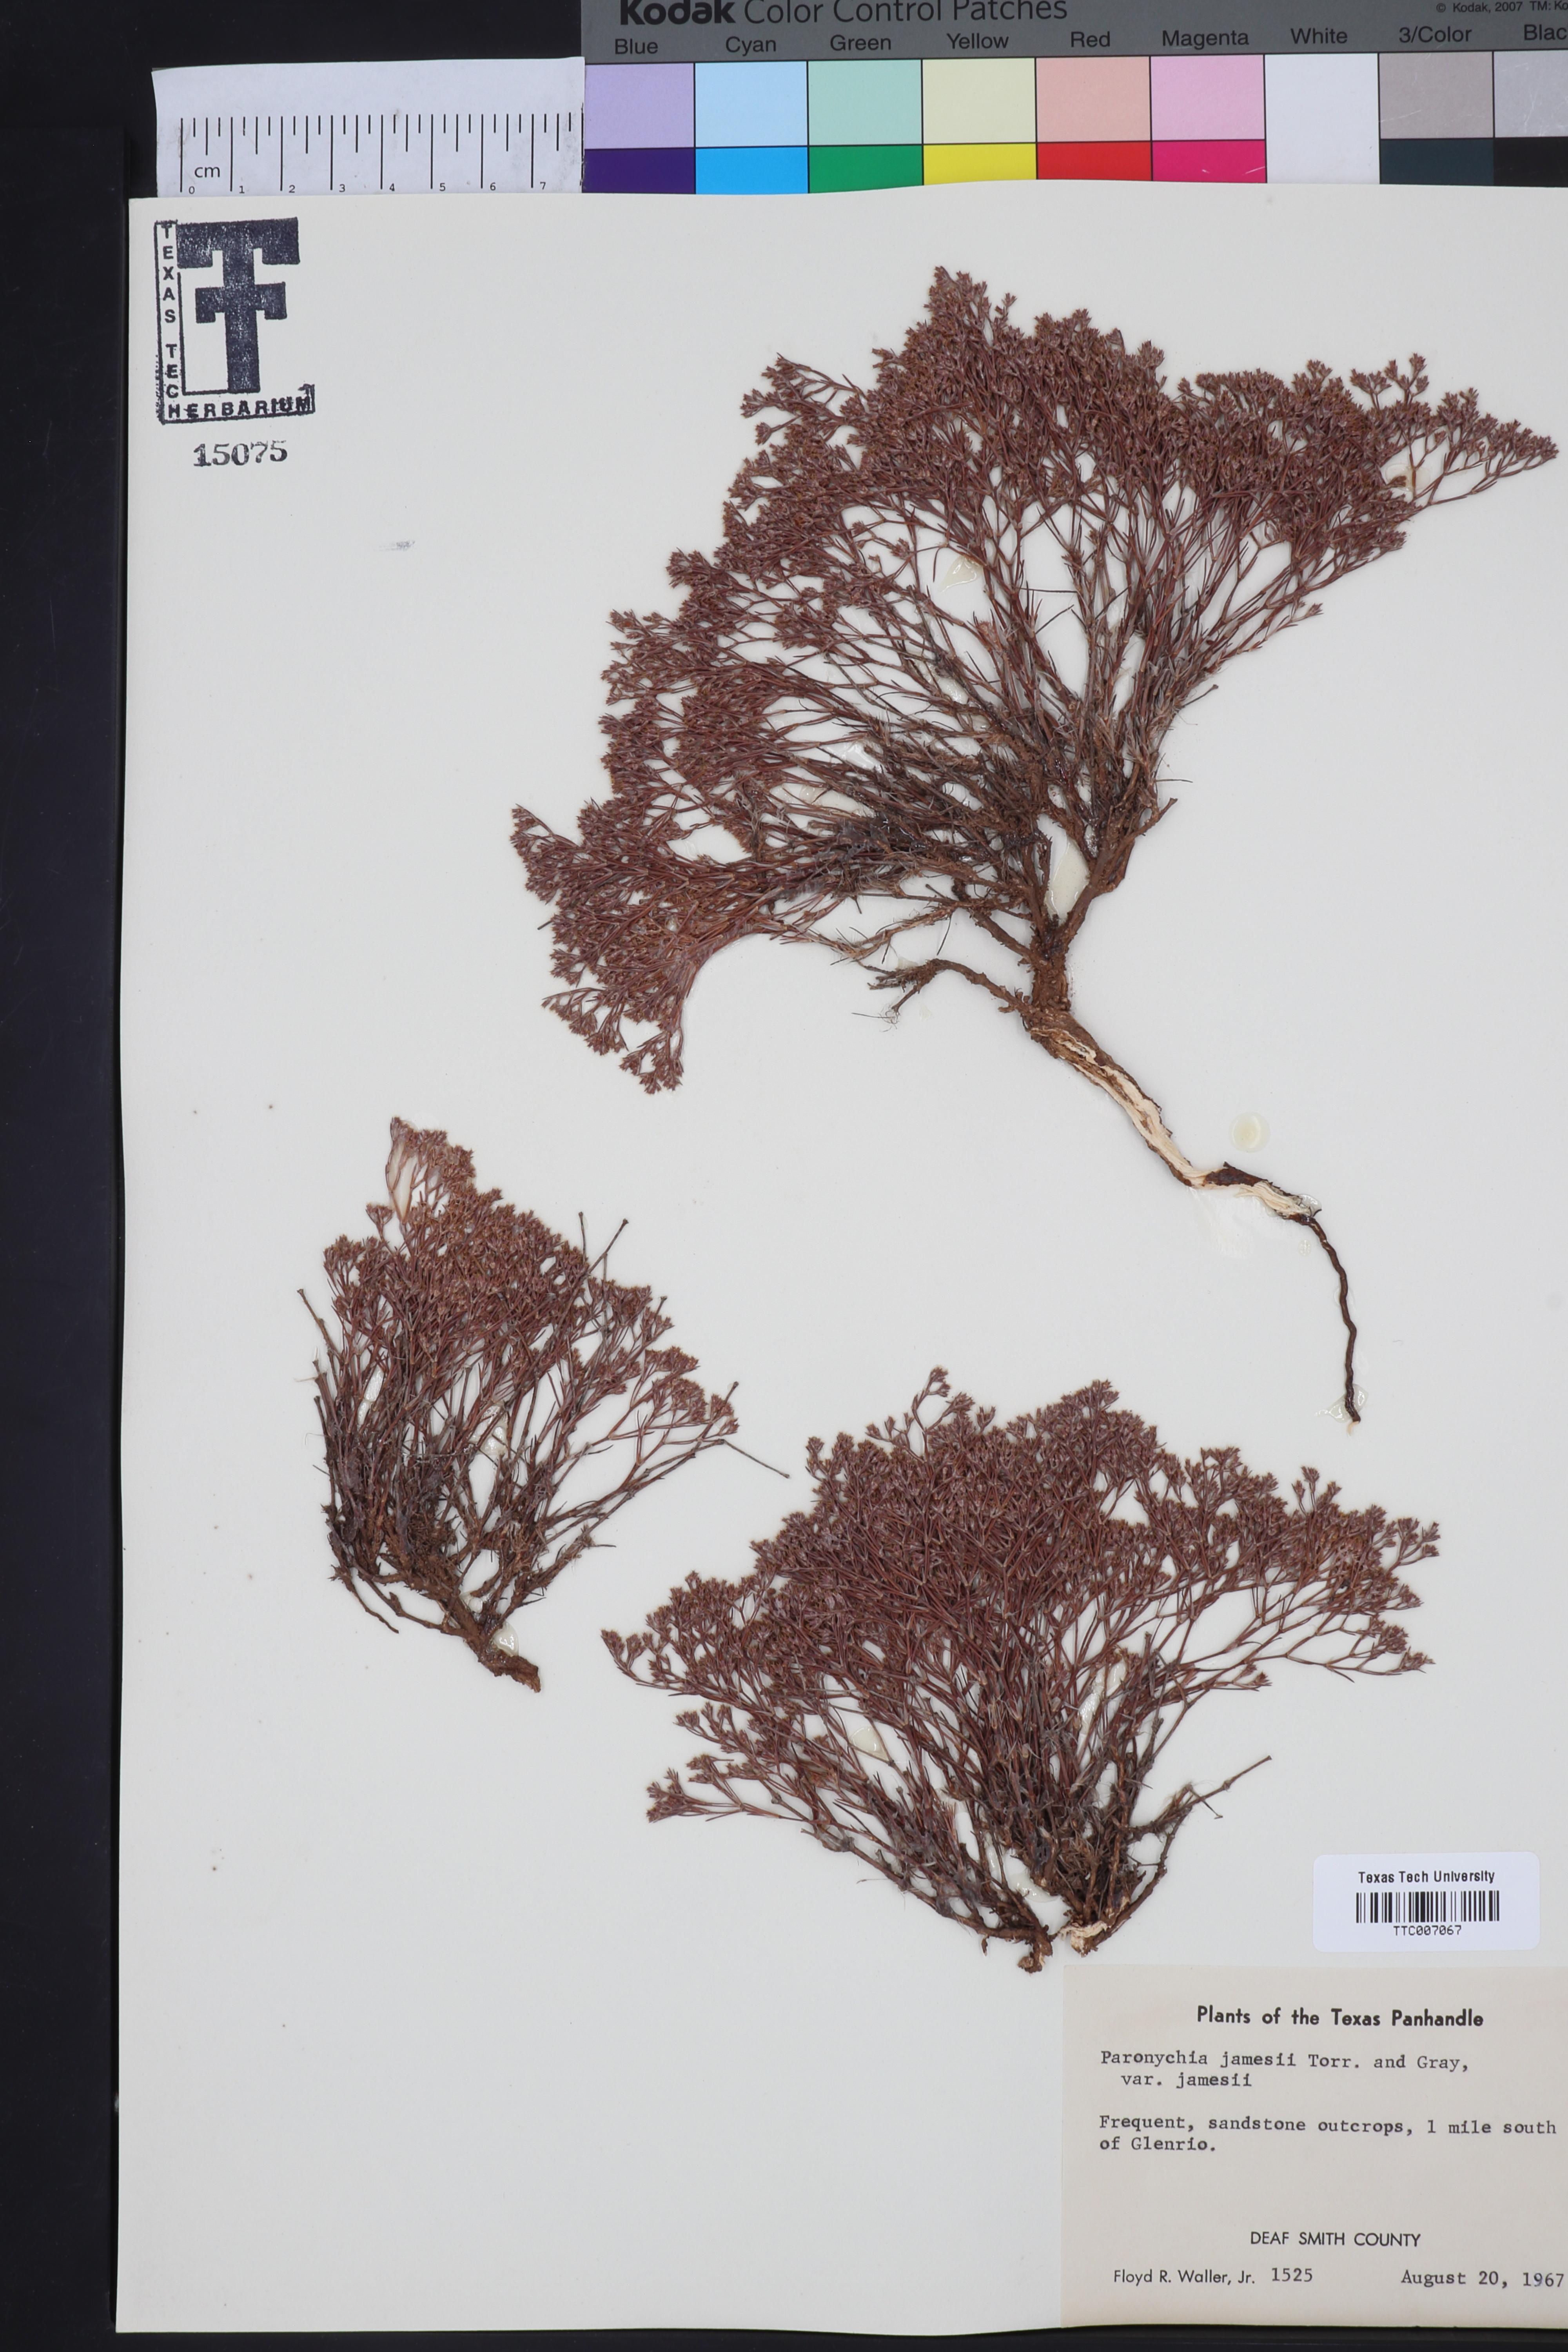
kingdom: Plantae
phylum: Tracheophyta
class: Magnoliopsida
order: Caryophyllales
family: Caryophyllaceae
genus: Paronychia
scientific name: Paronychia jamesii
